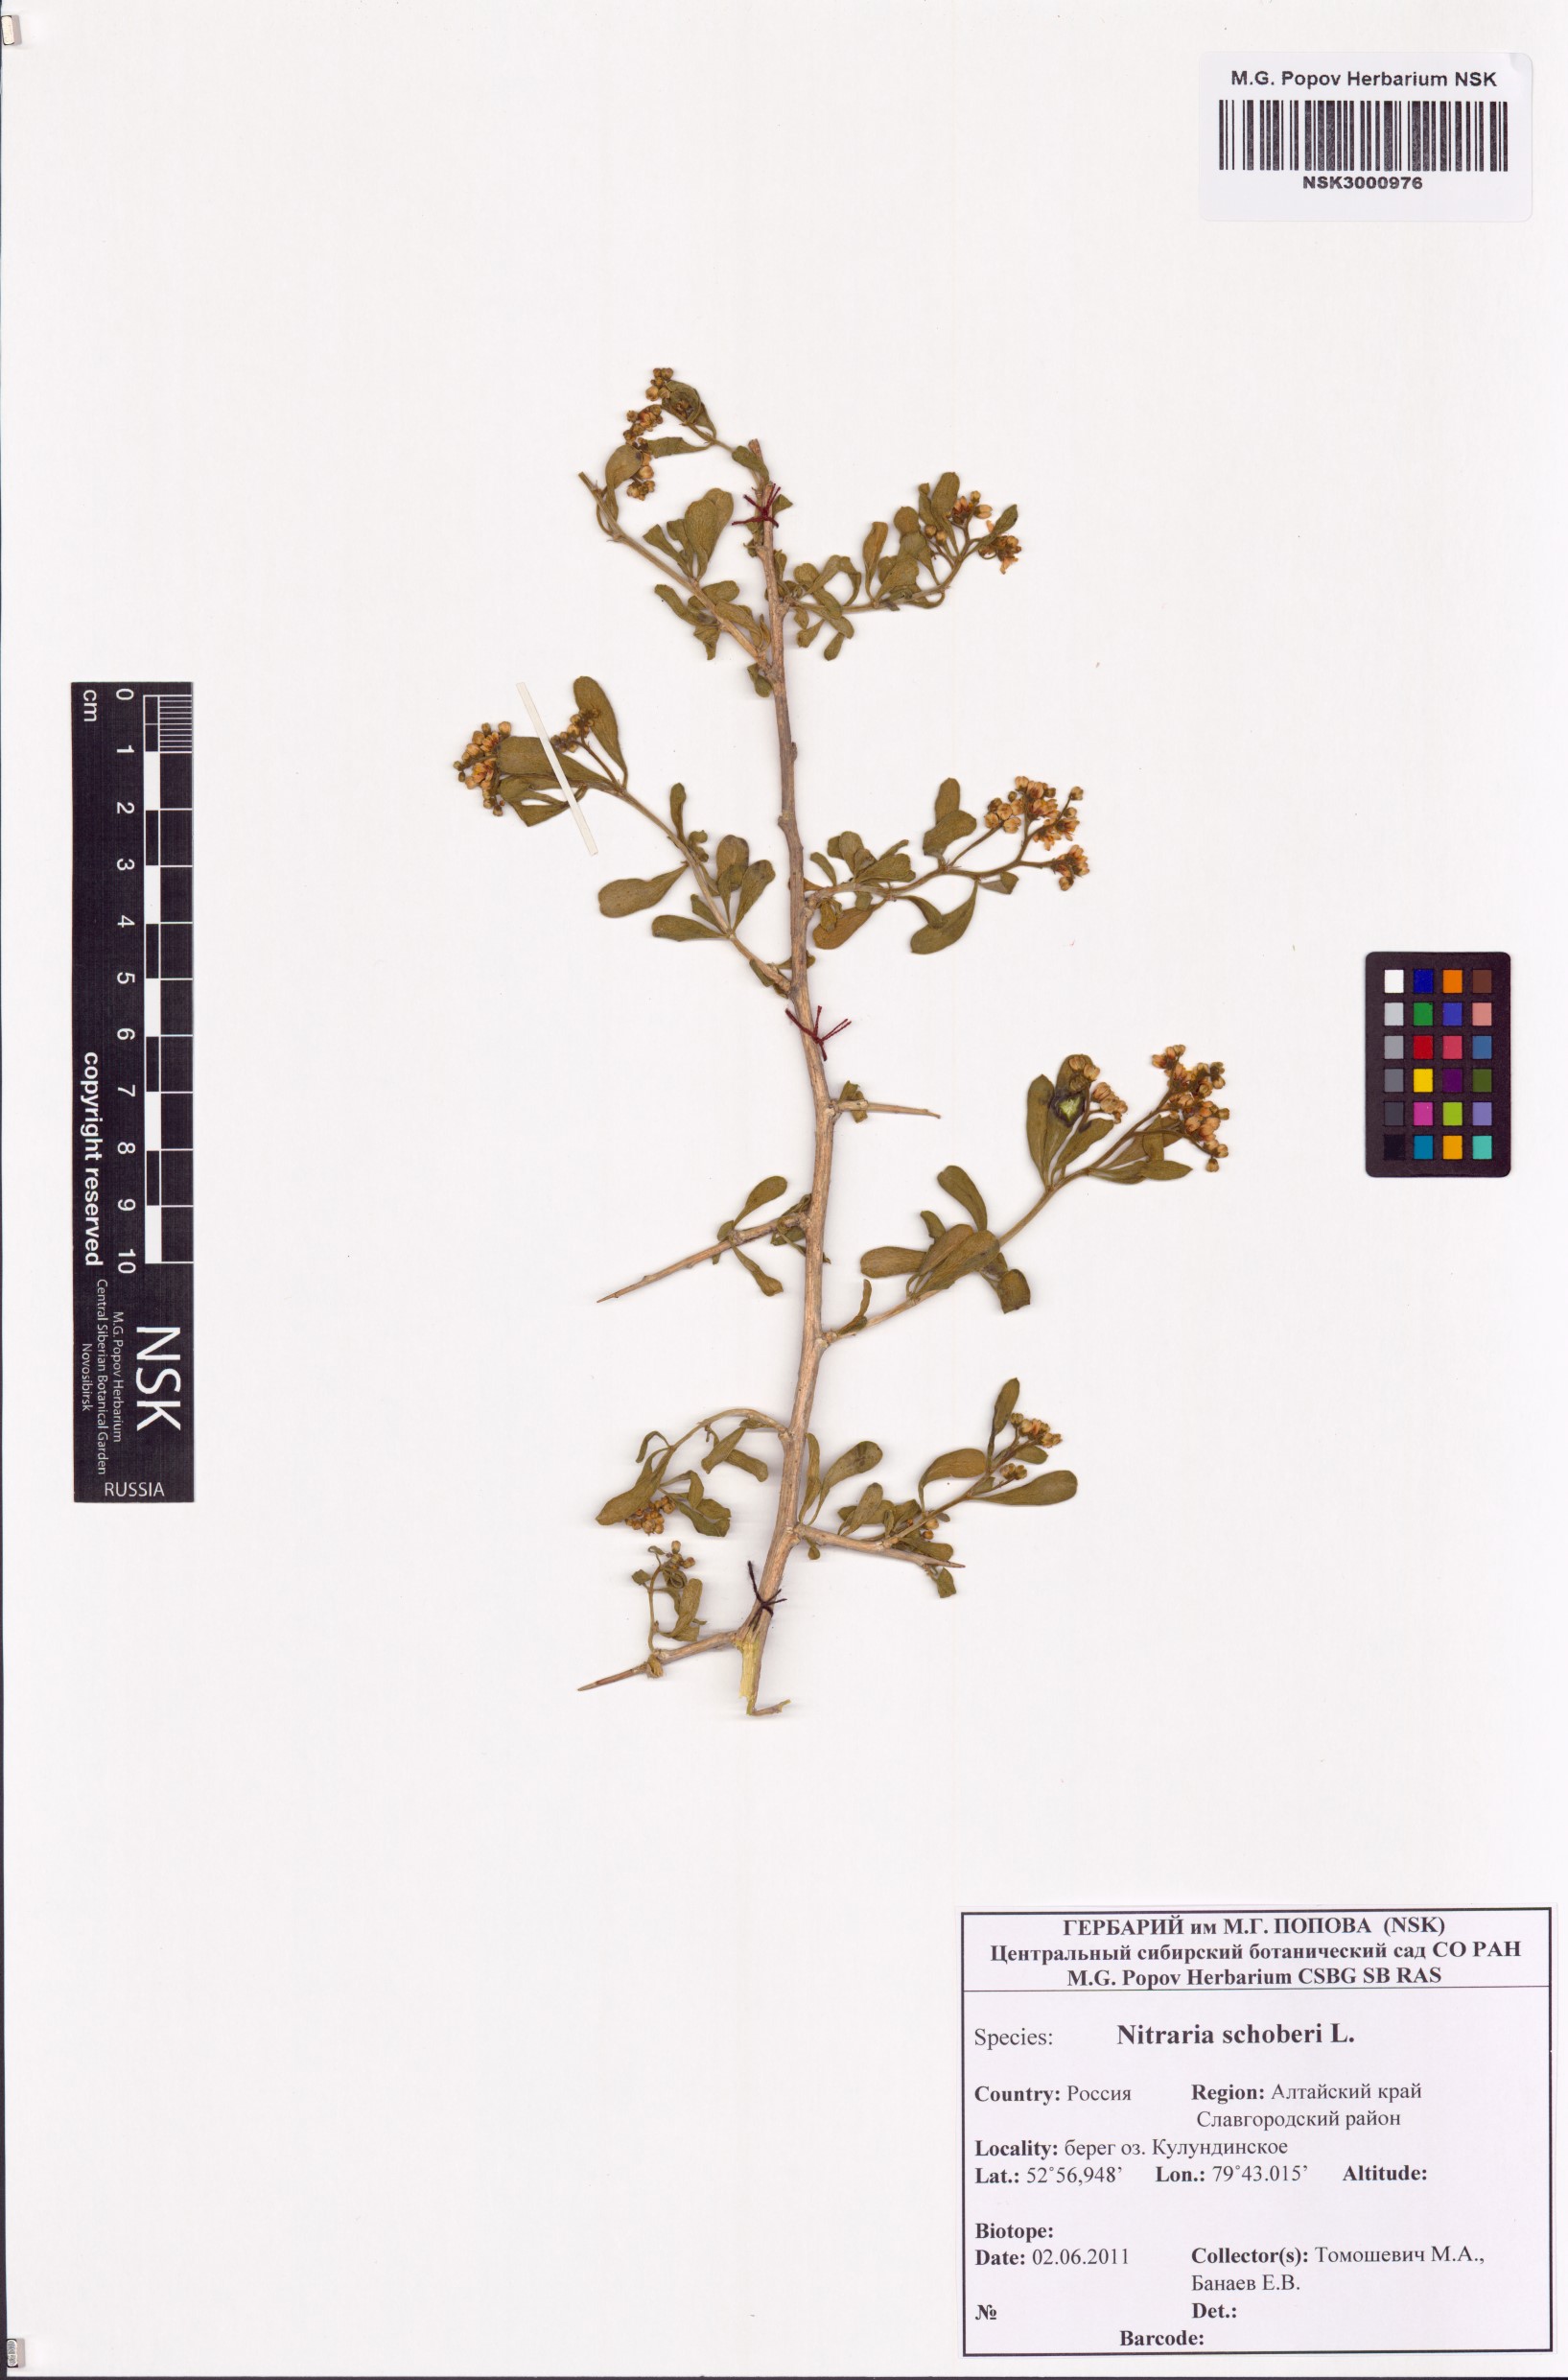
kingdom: Plantae
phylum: Tracheophyta
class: Magnoliopsida
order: Sapindales
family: Nitrariaceae
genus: Nitraria
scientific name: Nitraria schoberi
